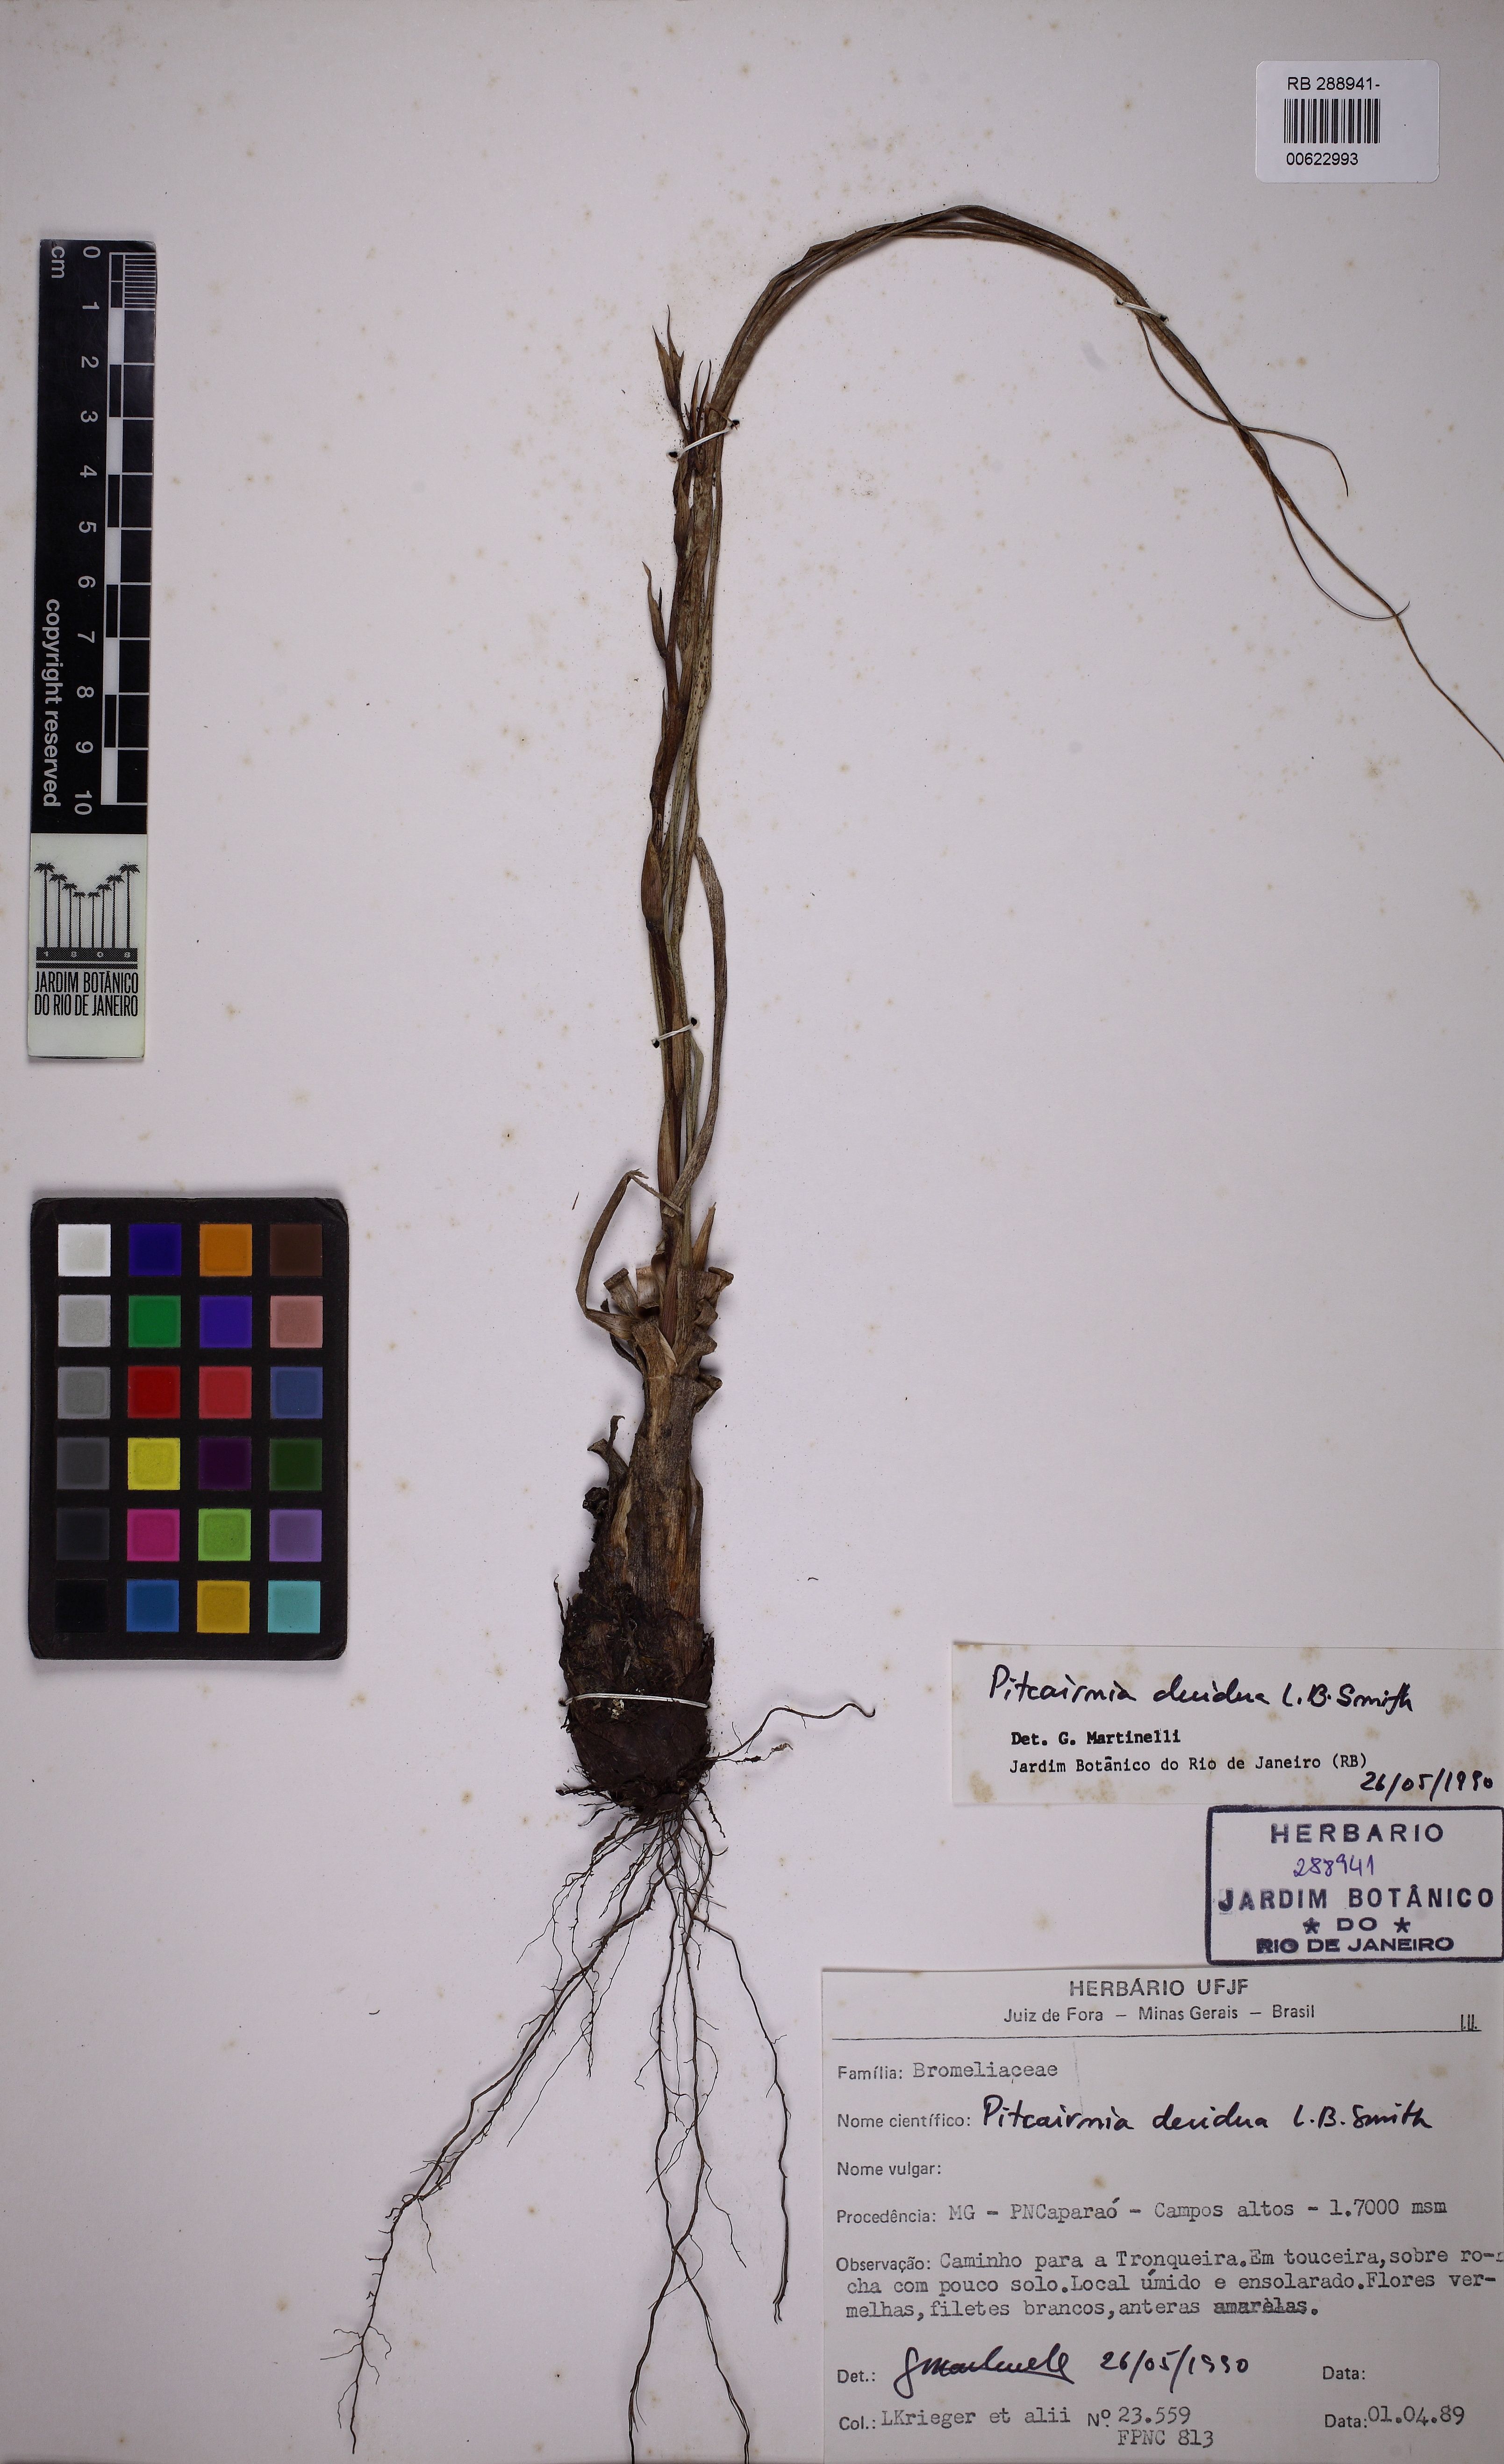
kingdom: Plantae
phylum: Tracheophyta
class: Liliopsida
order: Poales
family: Bromeliaceae
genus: Pitcairnia
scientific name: Pitcairnia decidua
